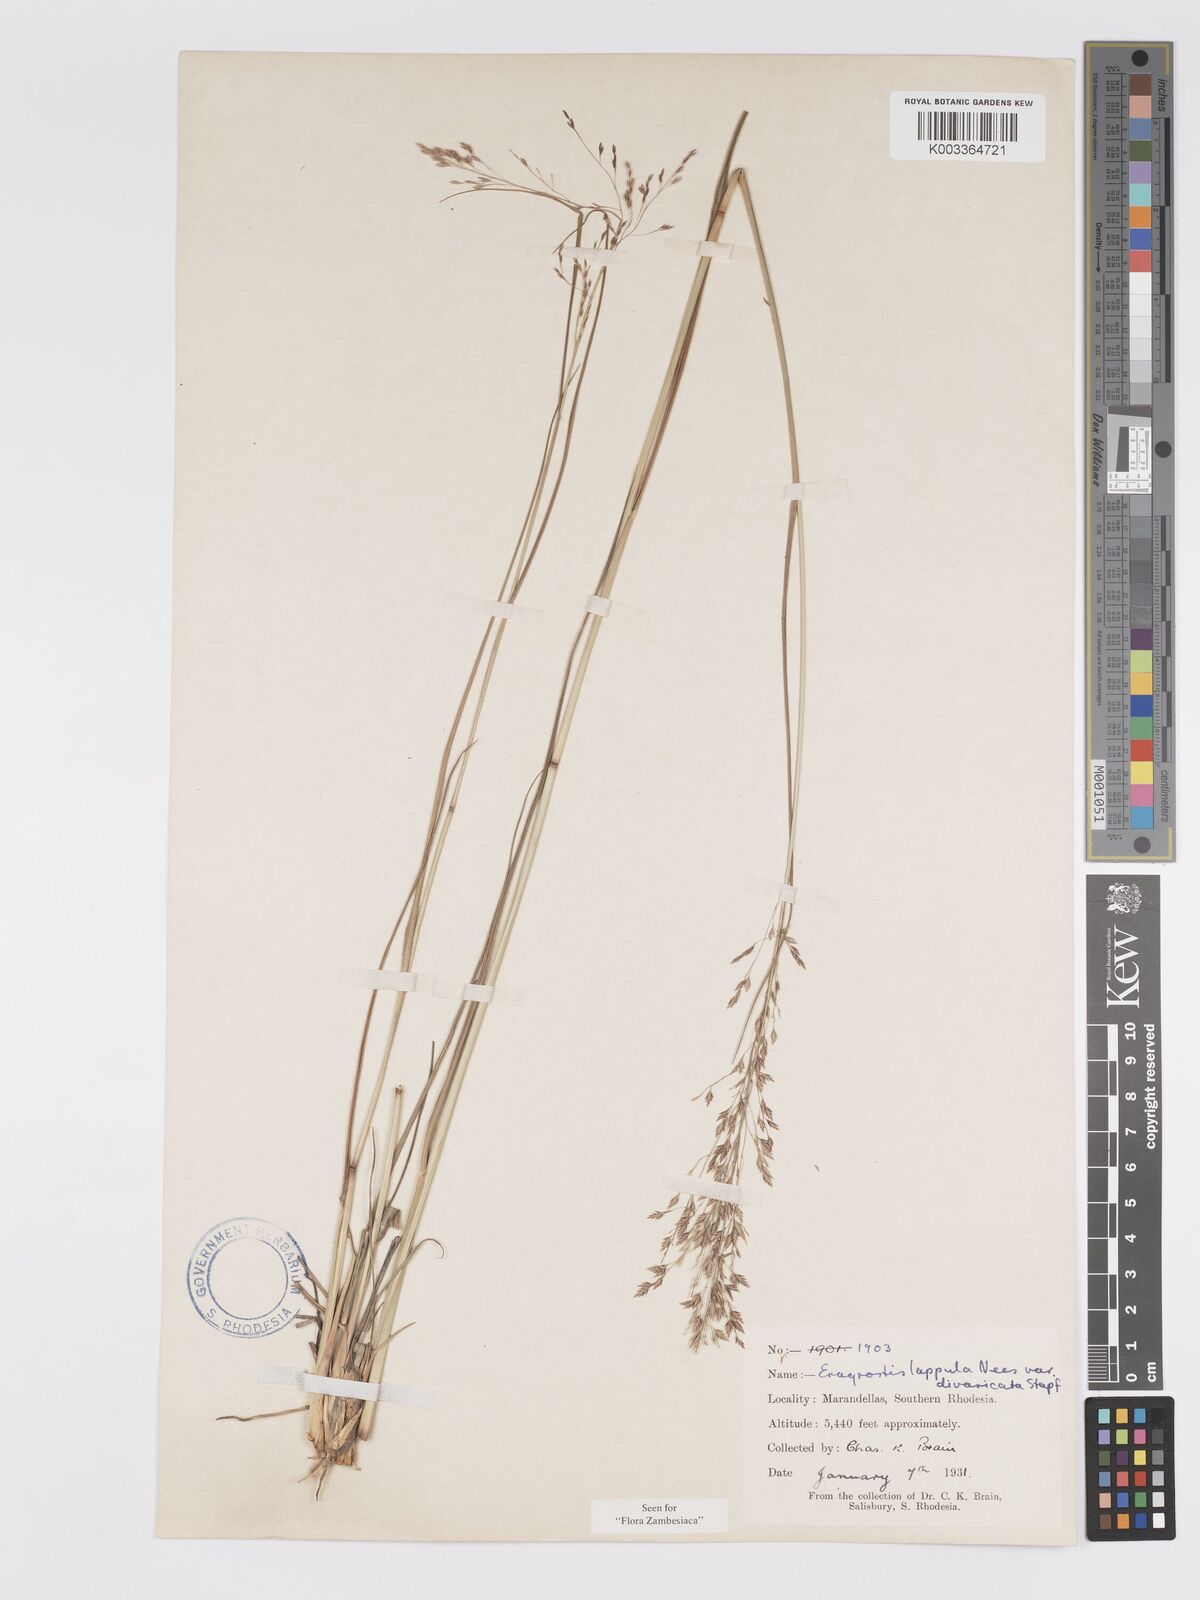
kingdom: Plantae
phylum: Tracheophyta
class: Liliopsida
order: Poales
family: Poaceae
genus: Eragrostis
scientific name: Eragrostis lappula
